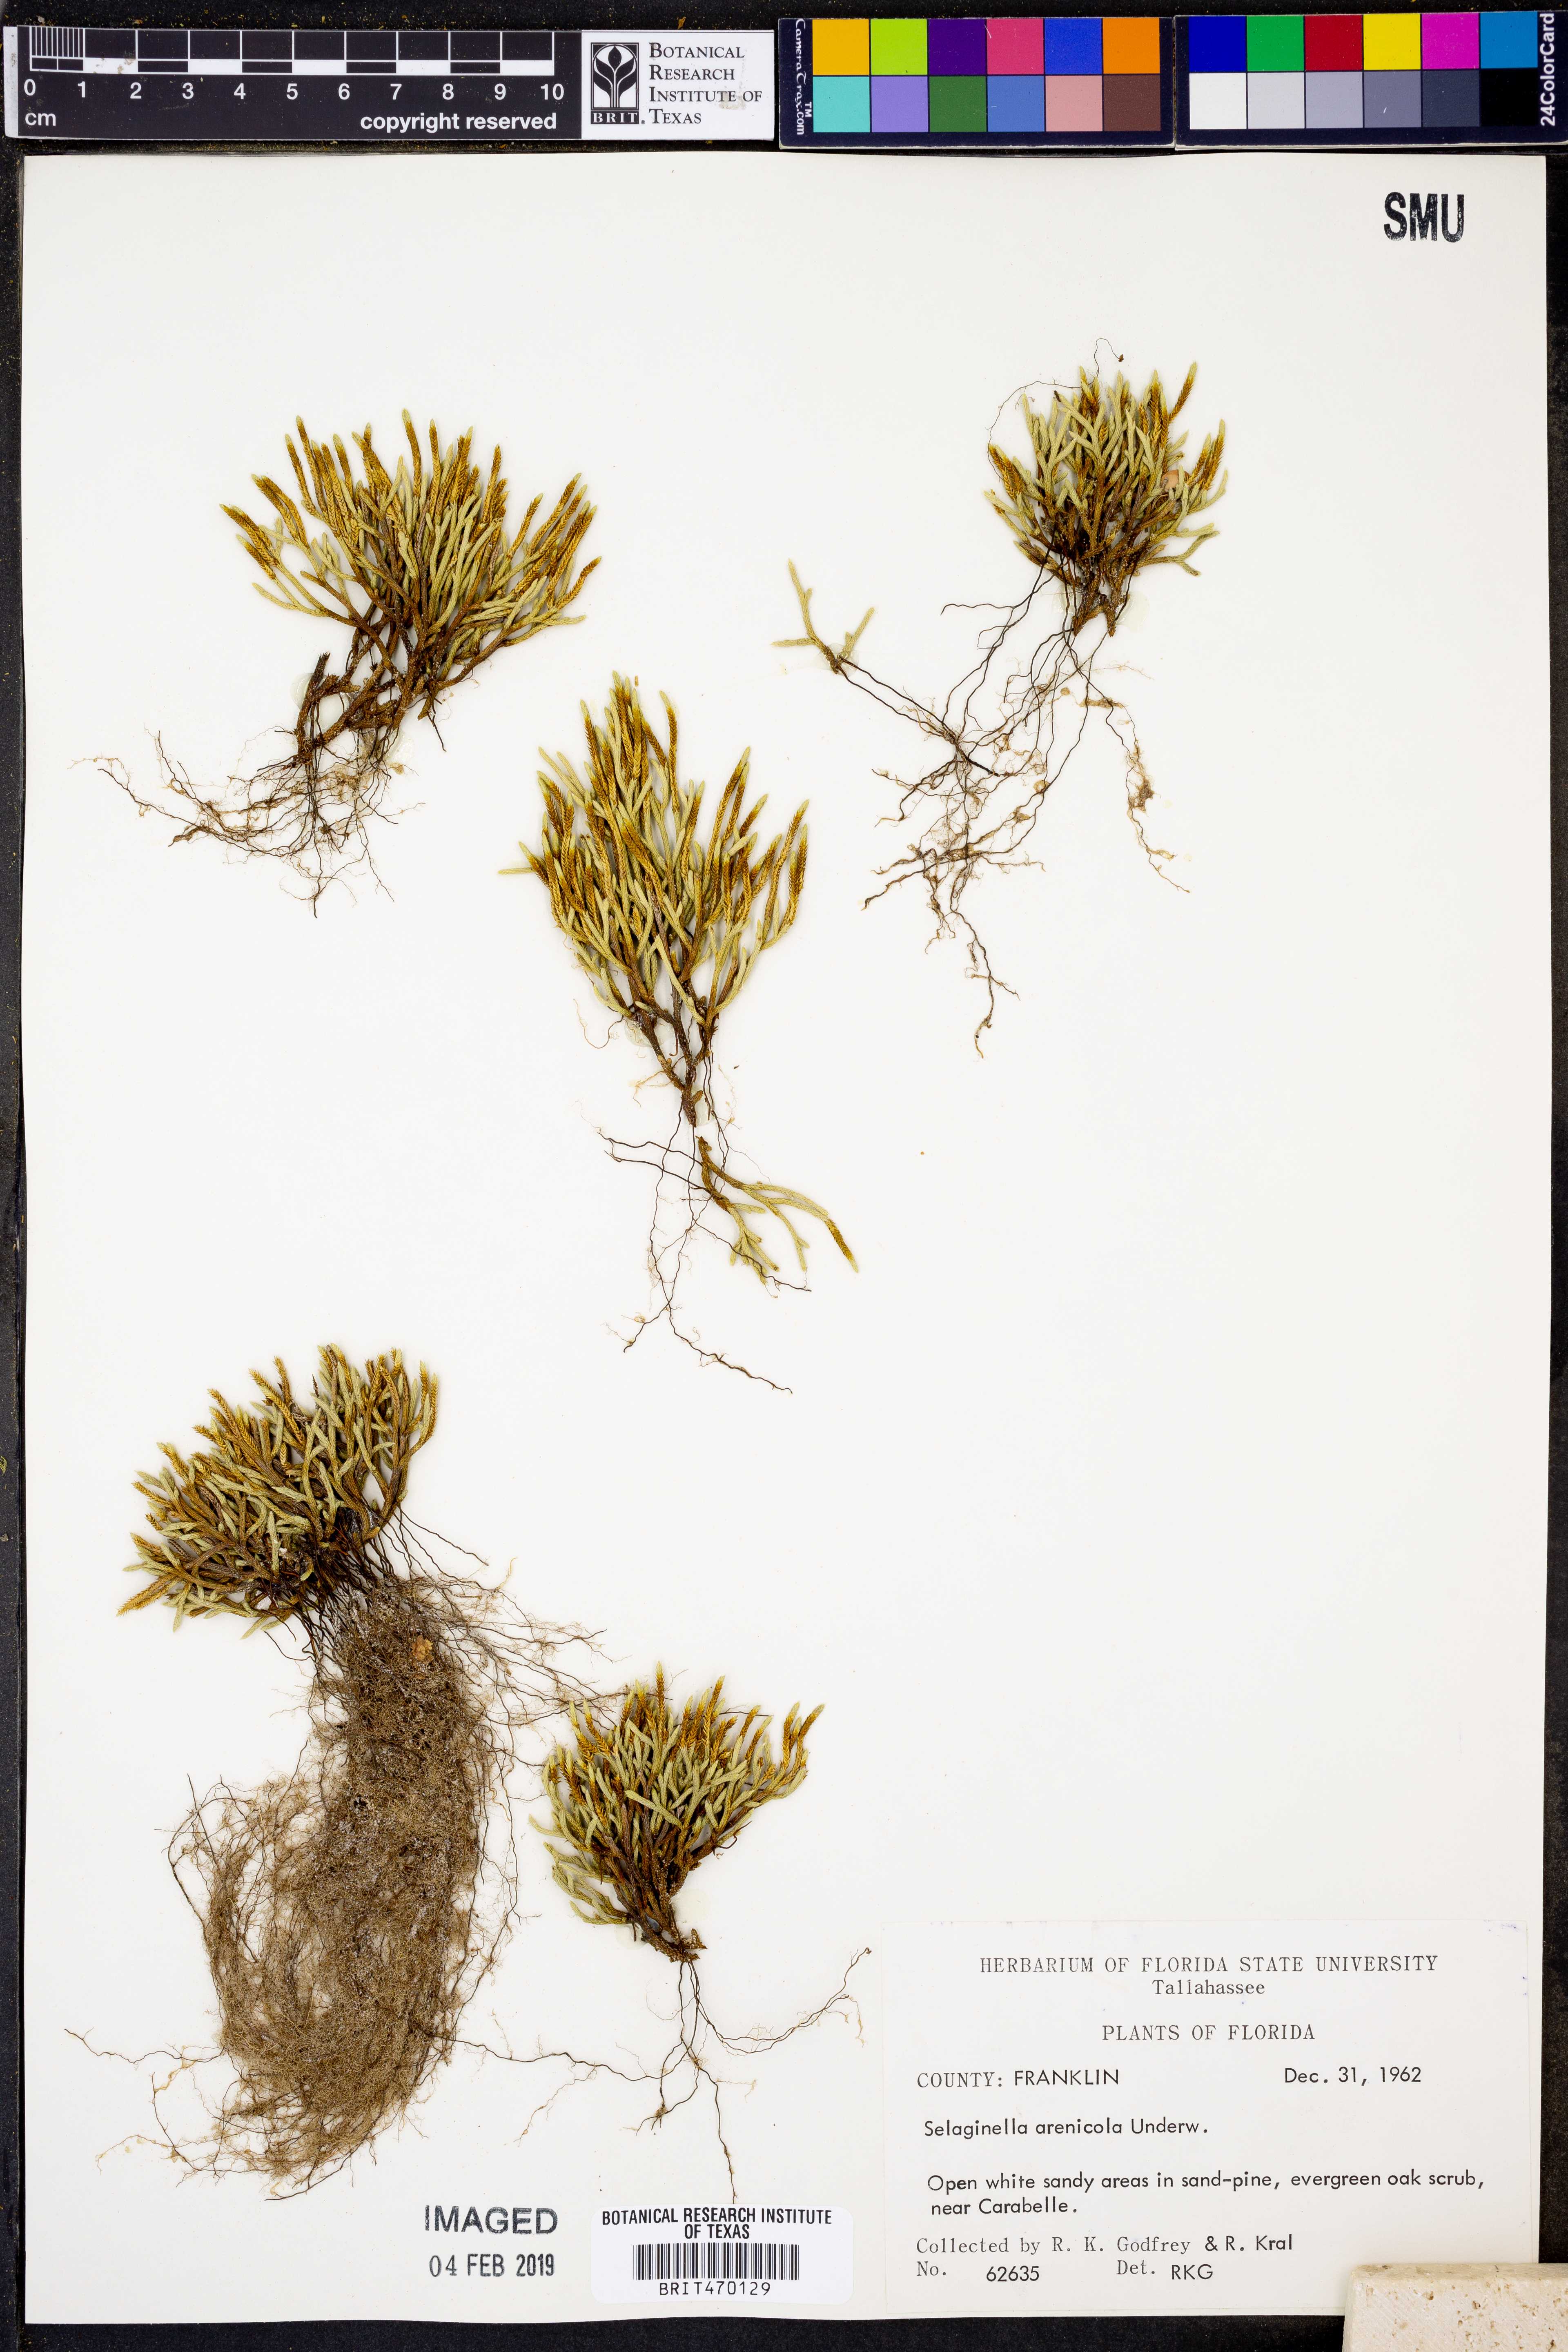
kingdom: Plantae
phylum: Tracheophyta
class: Lycopodiopsida
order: Selaginellales
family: Selaginellaceae
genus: Selaginella
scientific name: Selaginella arenicola
